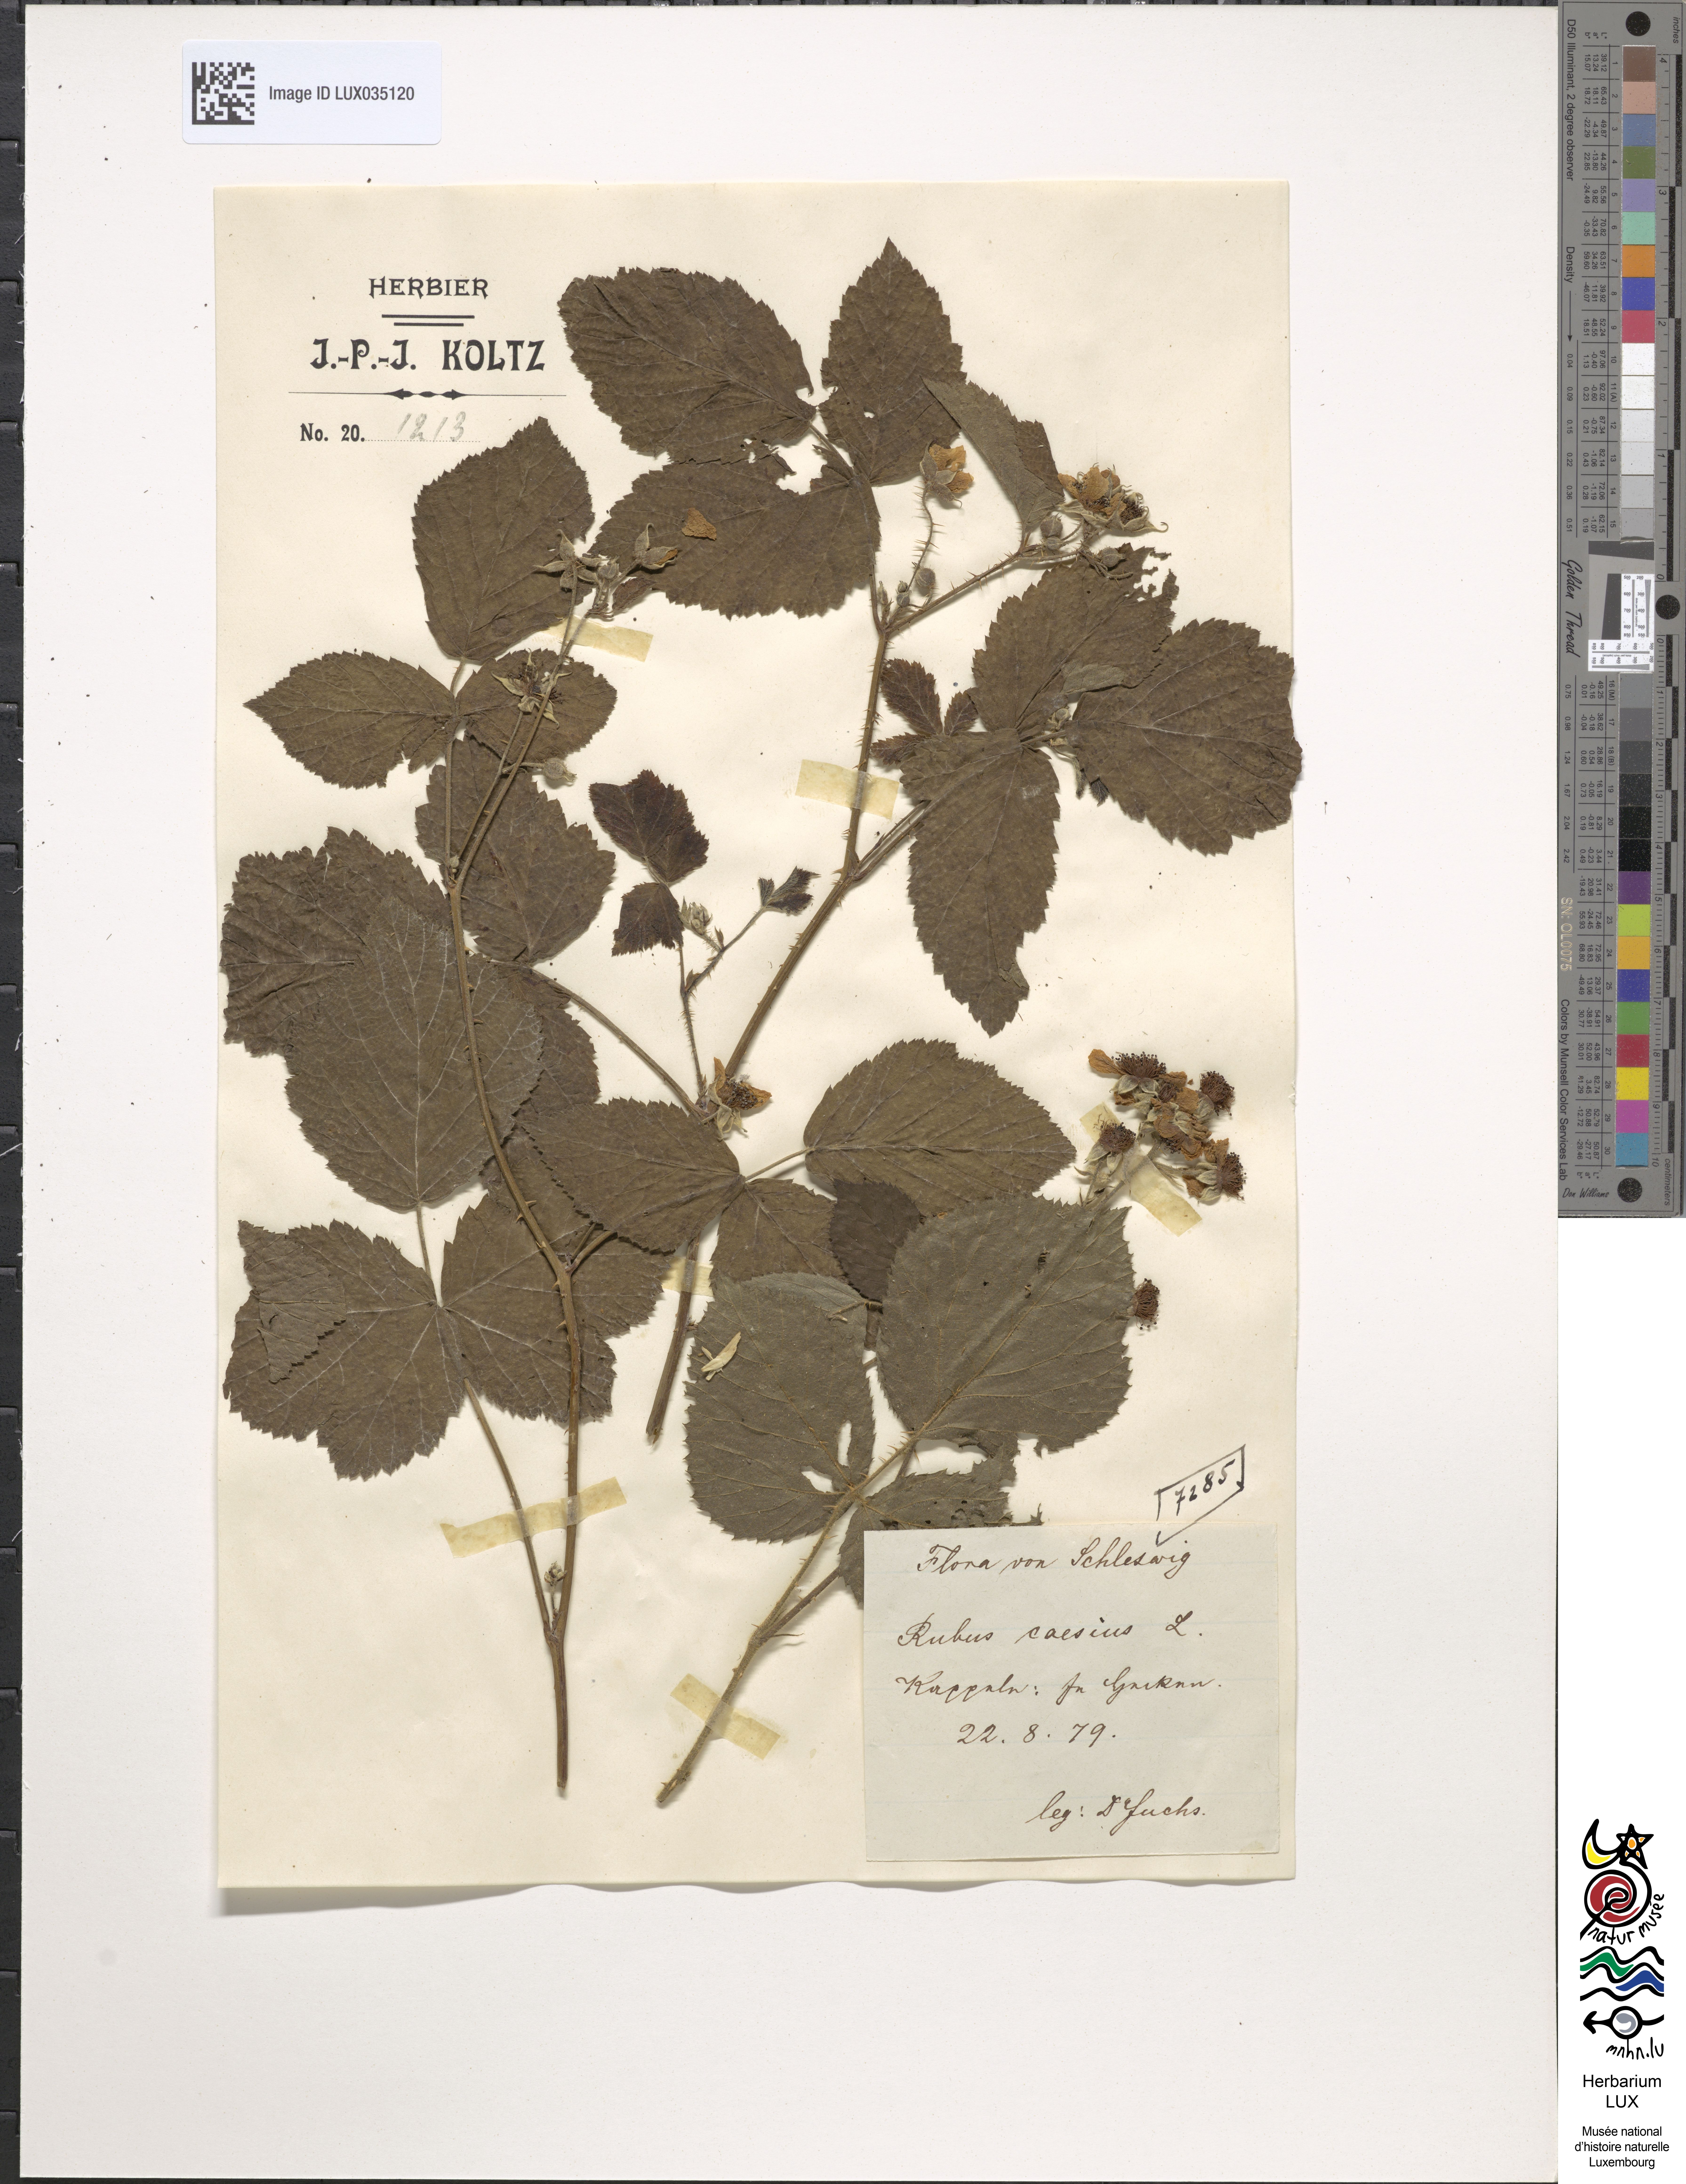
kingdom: Plantae
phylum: Tracheophyta
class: Magnoliopsida
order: Rosales
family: Rosaceae
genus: Rubus
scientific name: Rubus caesius
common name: Dewberry
